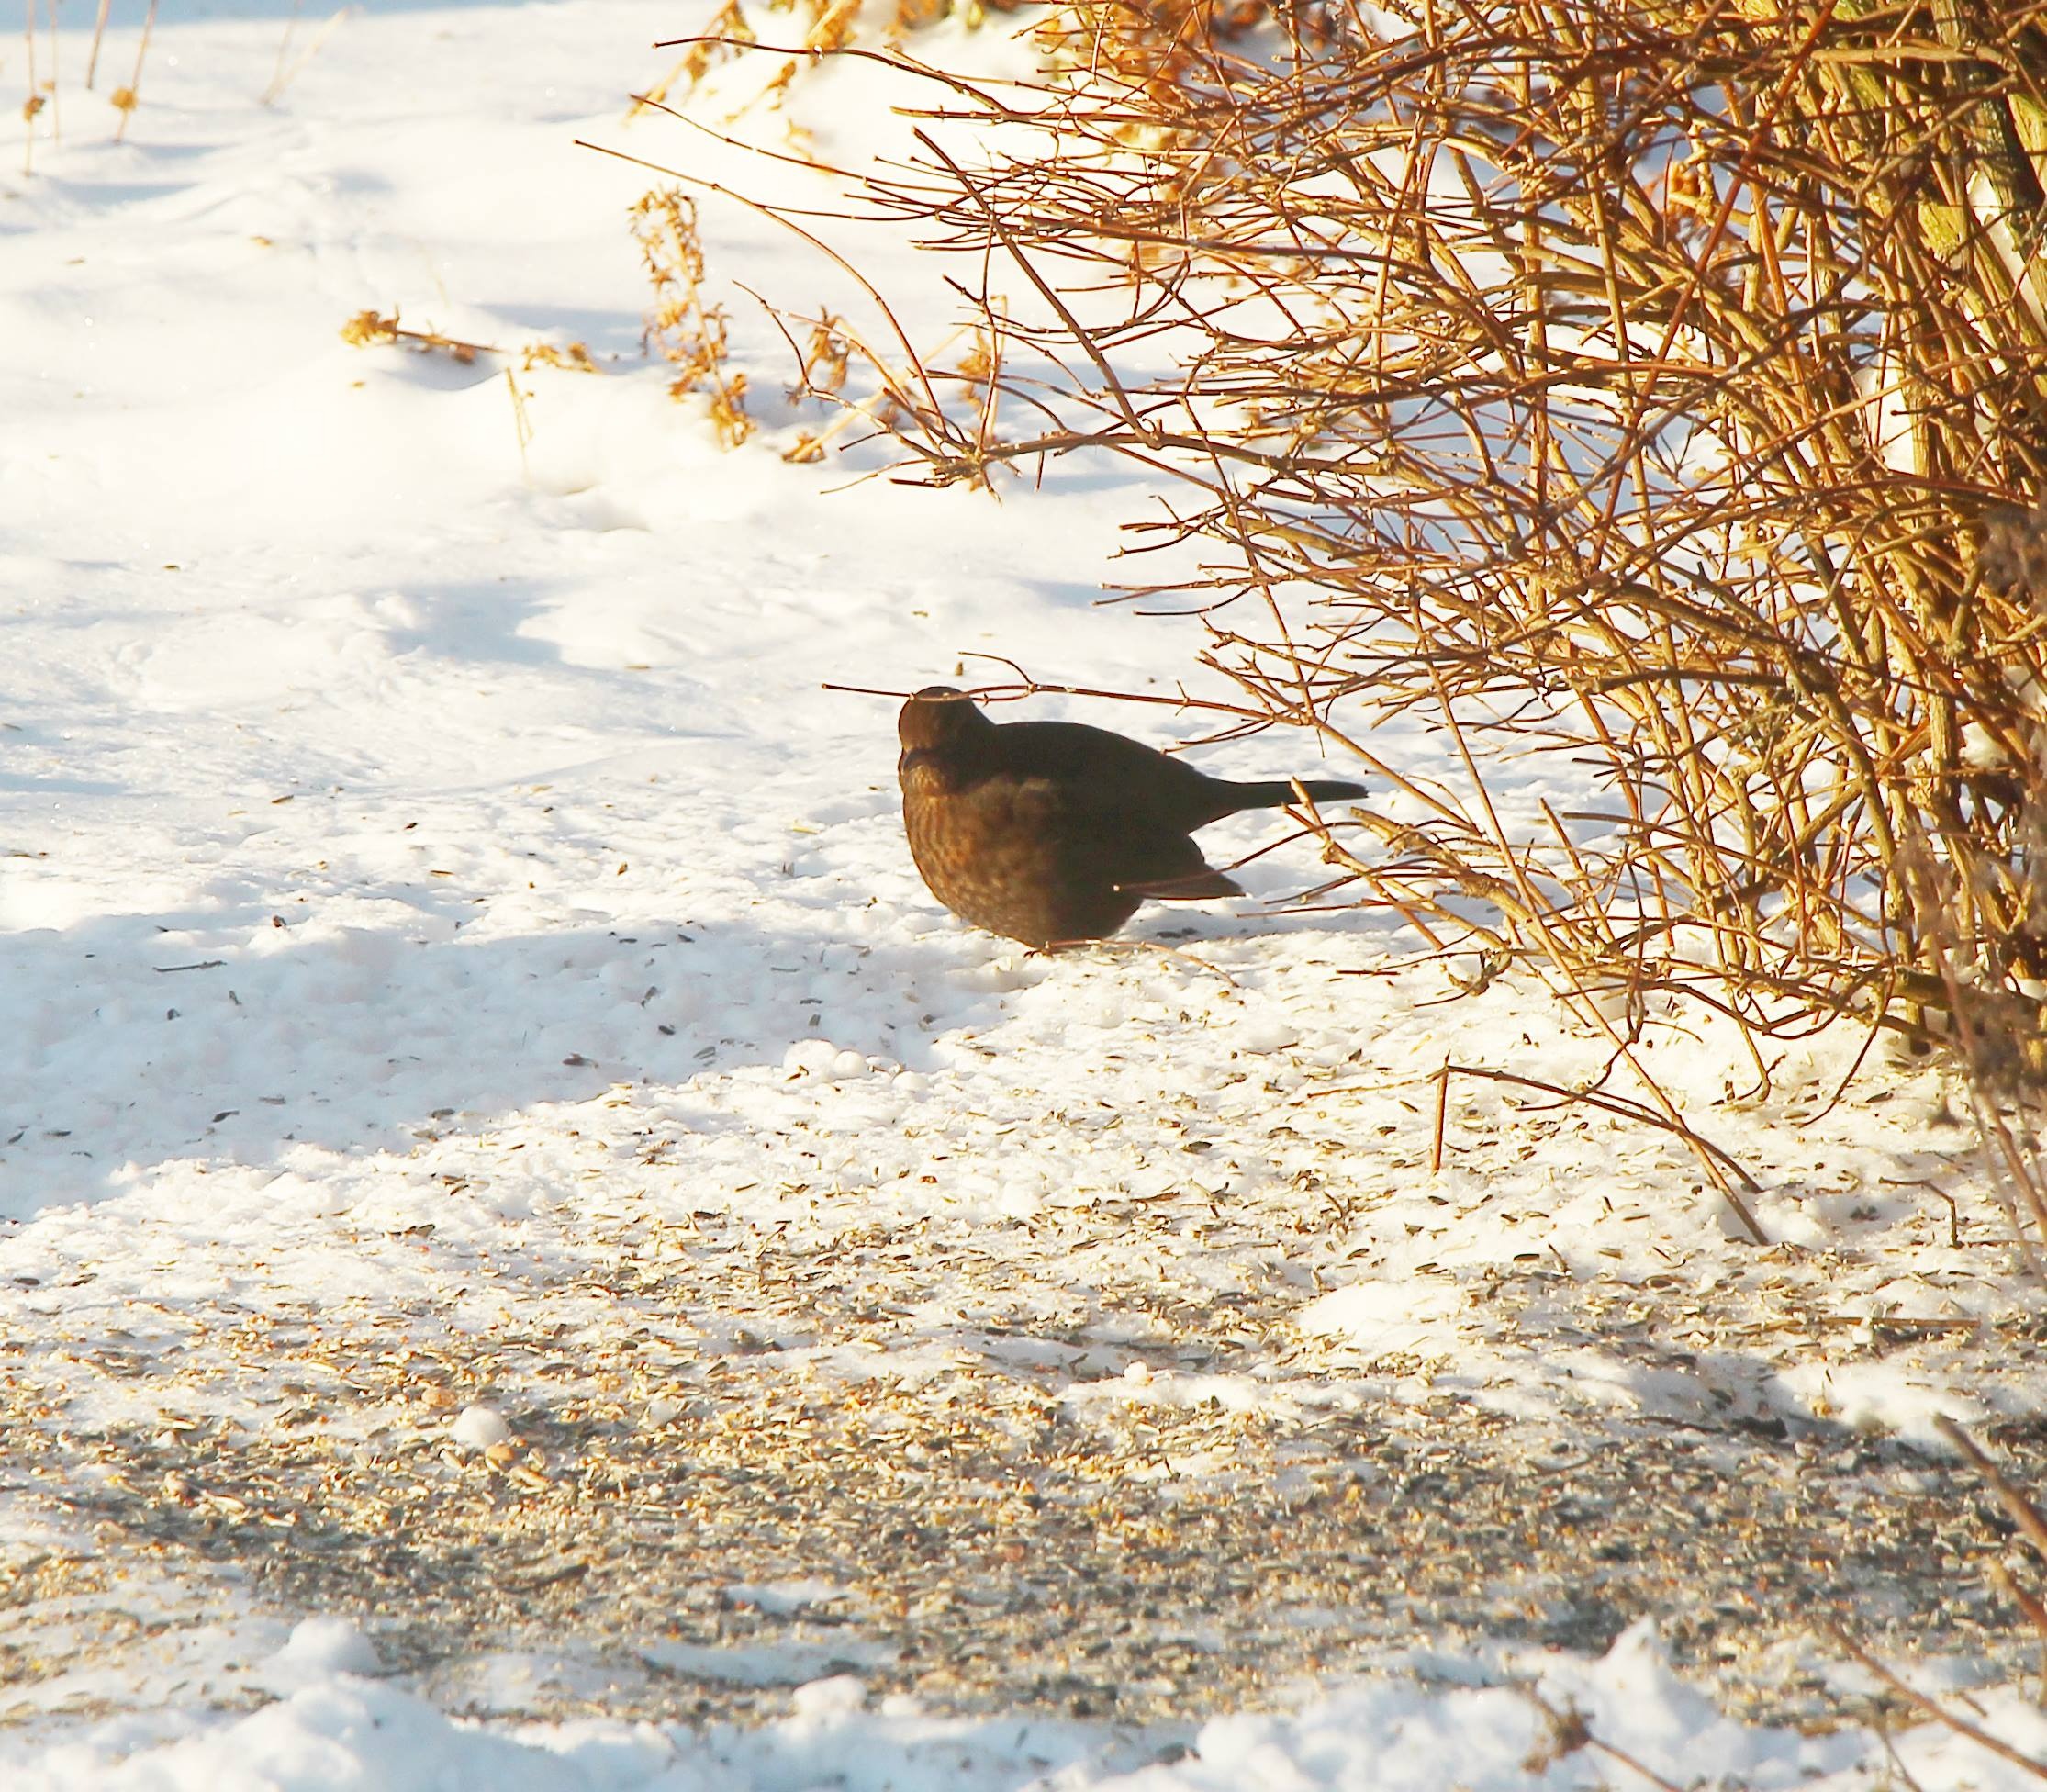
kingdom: Animalia
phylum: Chordata
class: Aves
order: Passeriformes
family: Turdidae
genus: Turdus
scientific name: Turdus merula
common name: Solsort
